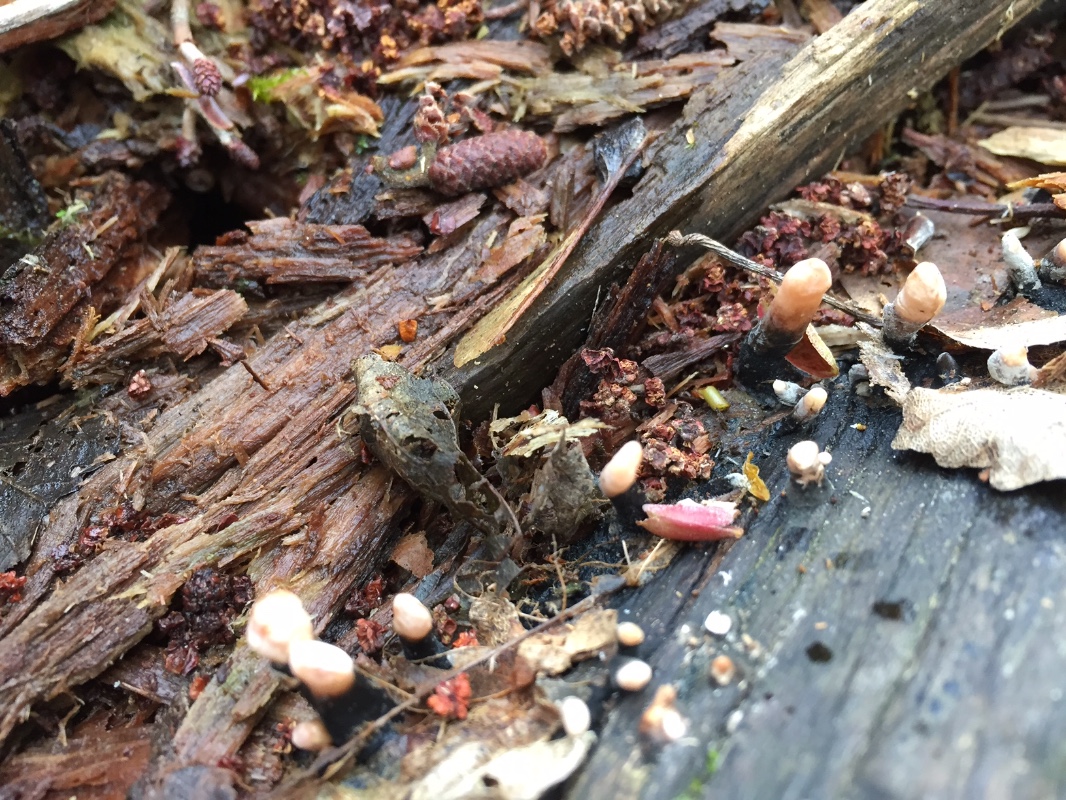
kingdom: Fungi
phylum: Ascomycota
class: Sordariomycetes
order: Xylariales
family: Xylariaceae
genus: Xylaria
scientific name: Xylaria longipes
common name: slank stødsvamp
